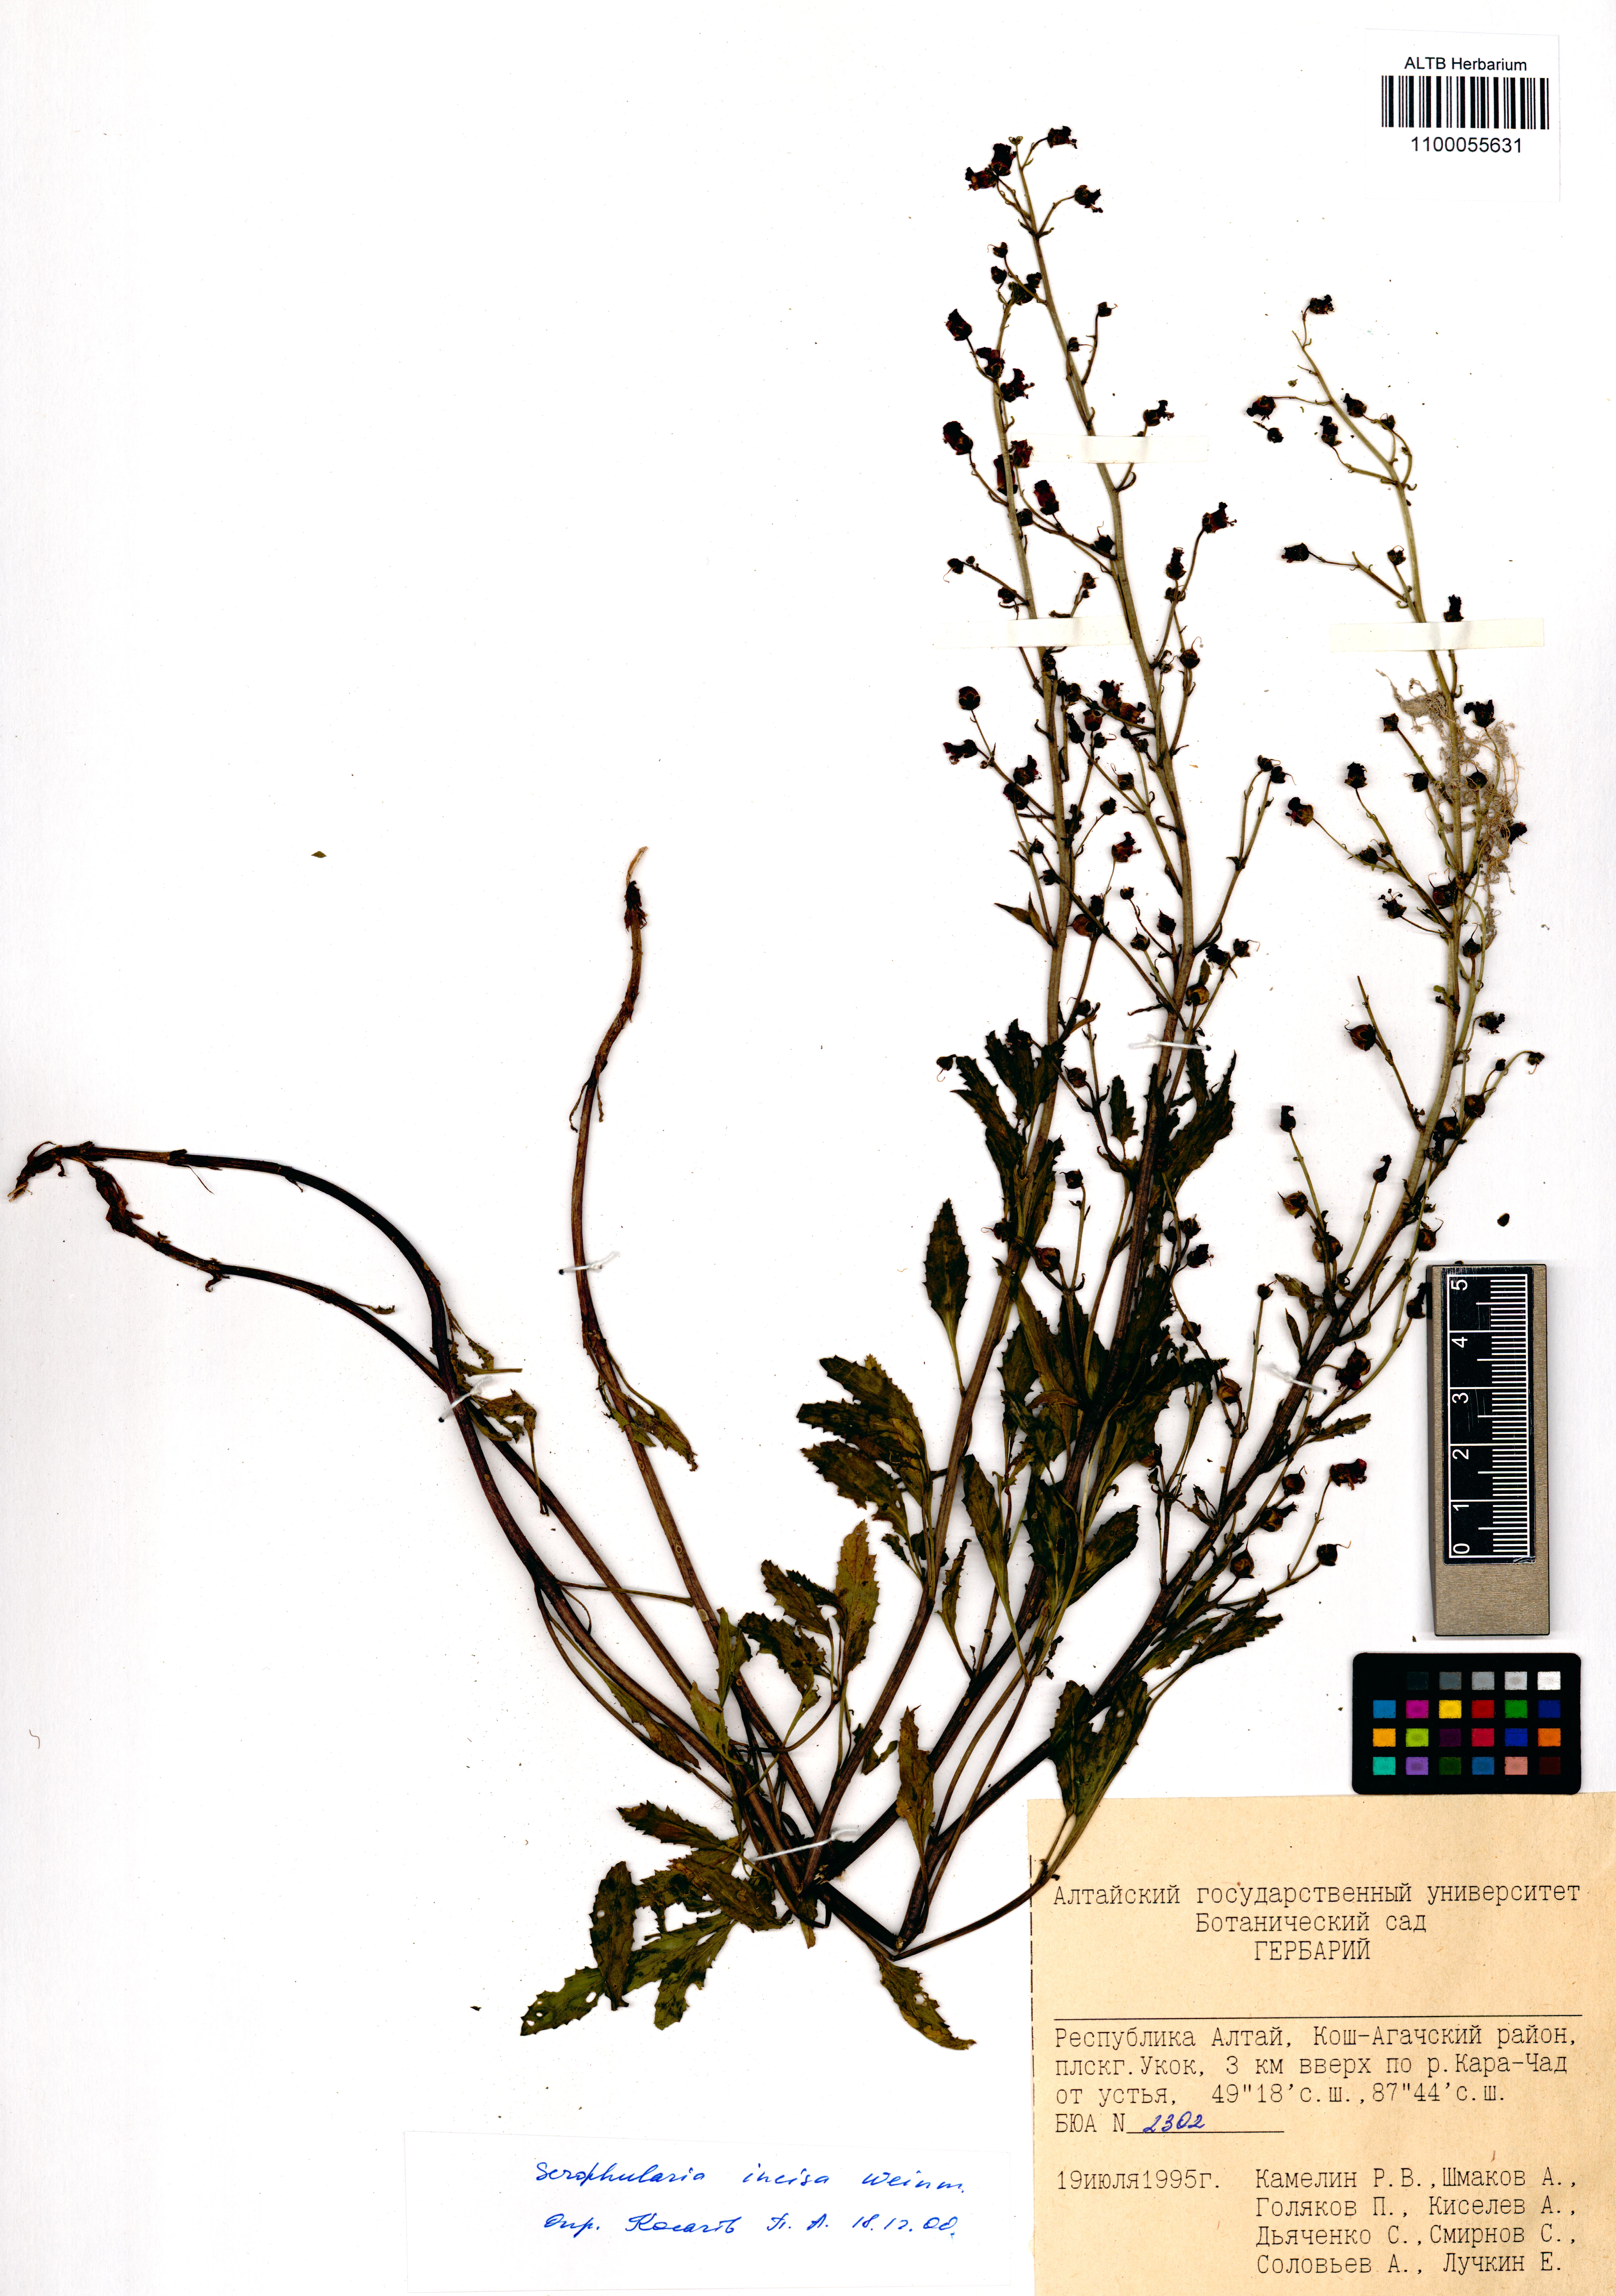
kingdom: Plantae
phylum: Tracheophyta
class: Magnoliopsida
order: Lamiales
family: Scrophulariaceae
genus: Scrophularia
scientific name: Scrophularia incisa
